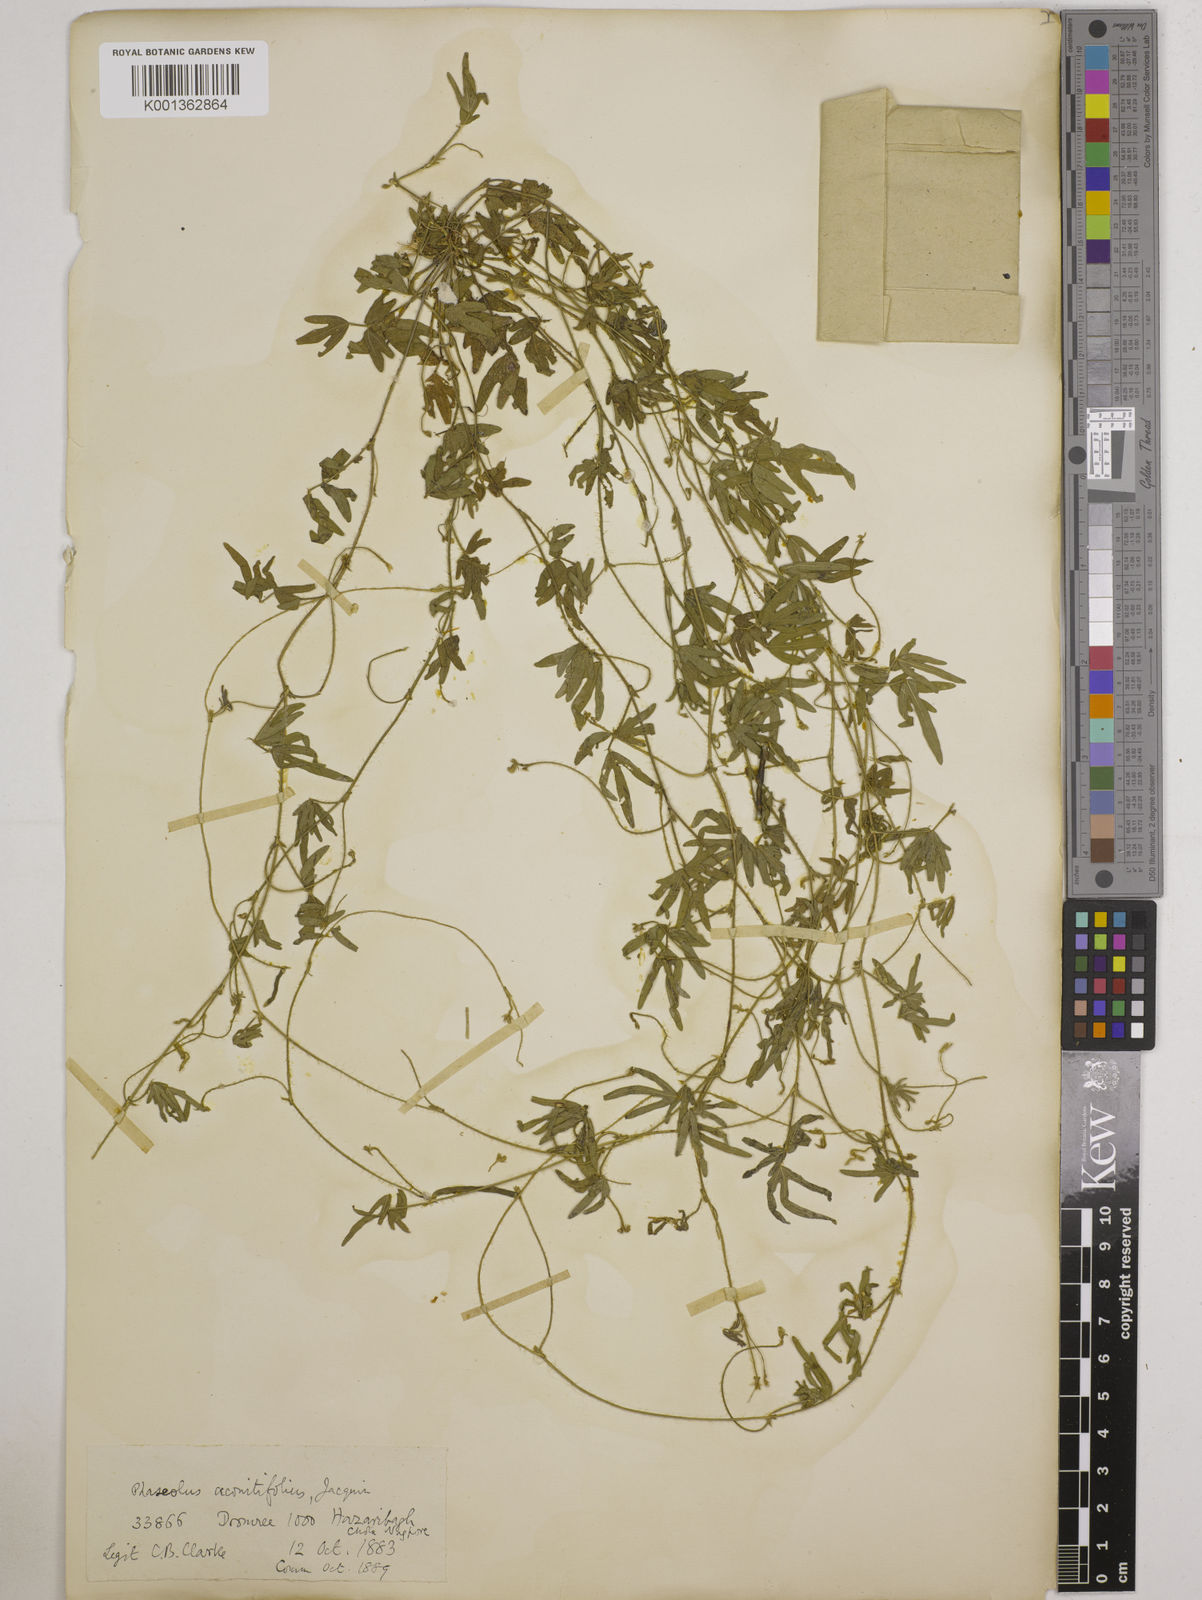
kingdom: Plantae
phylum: Tracheophyta
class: Magnoliopsida
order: Fabales
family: Fabaceae
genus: Vigna
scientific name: Vigna aconitifolia
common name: Dew bean
